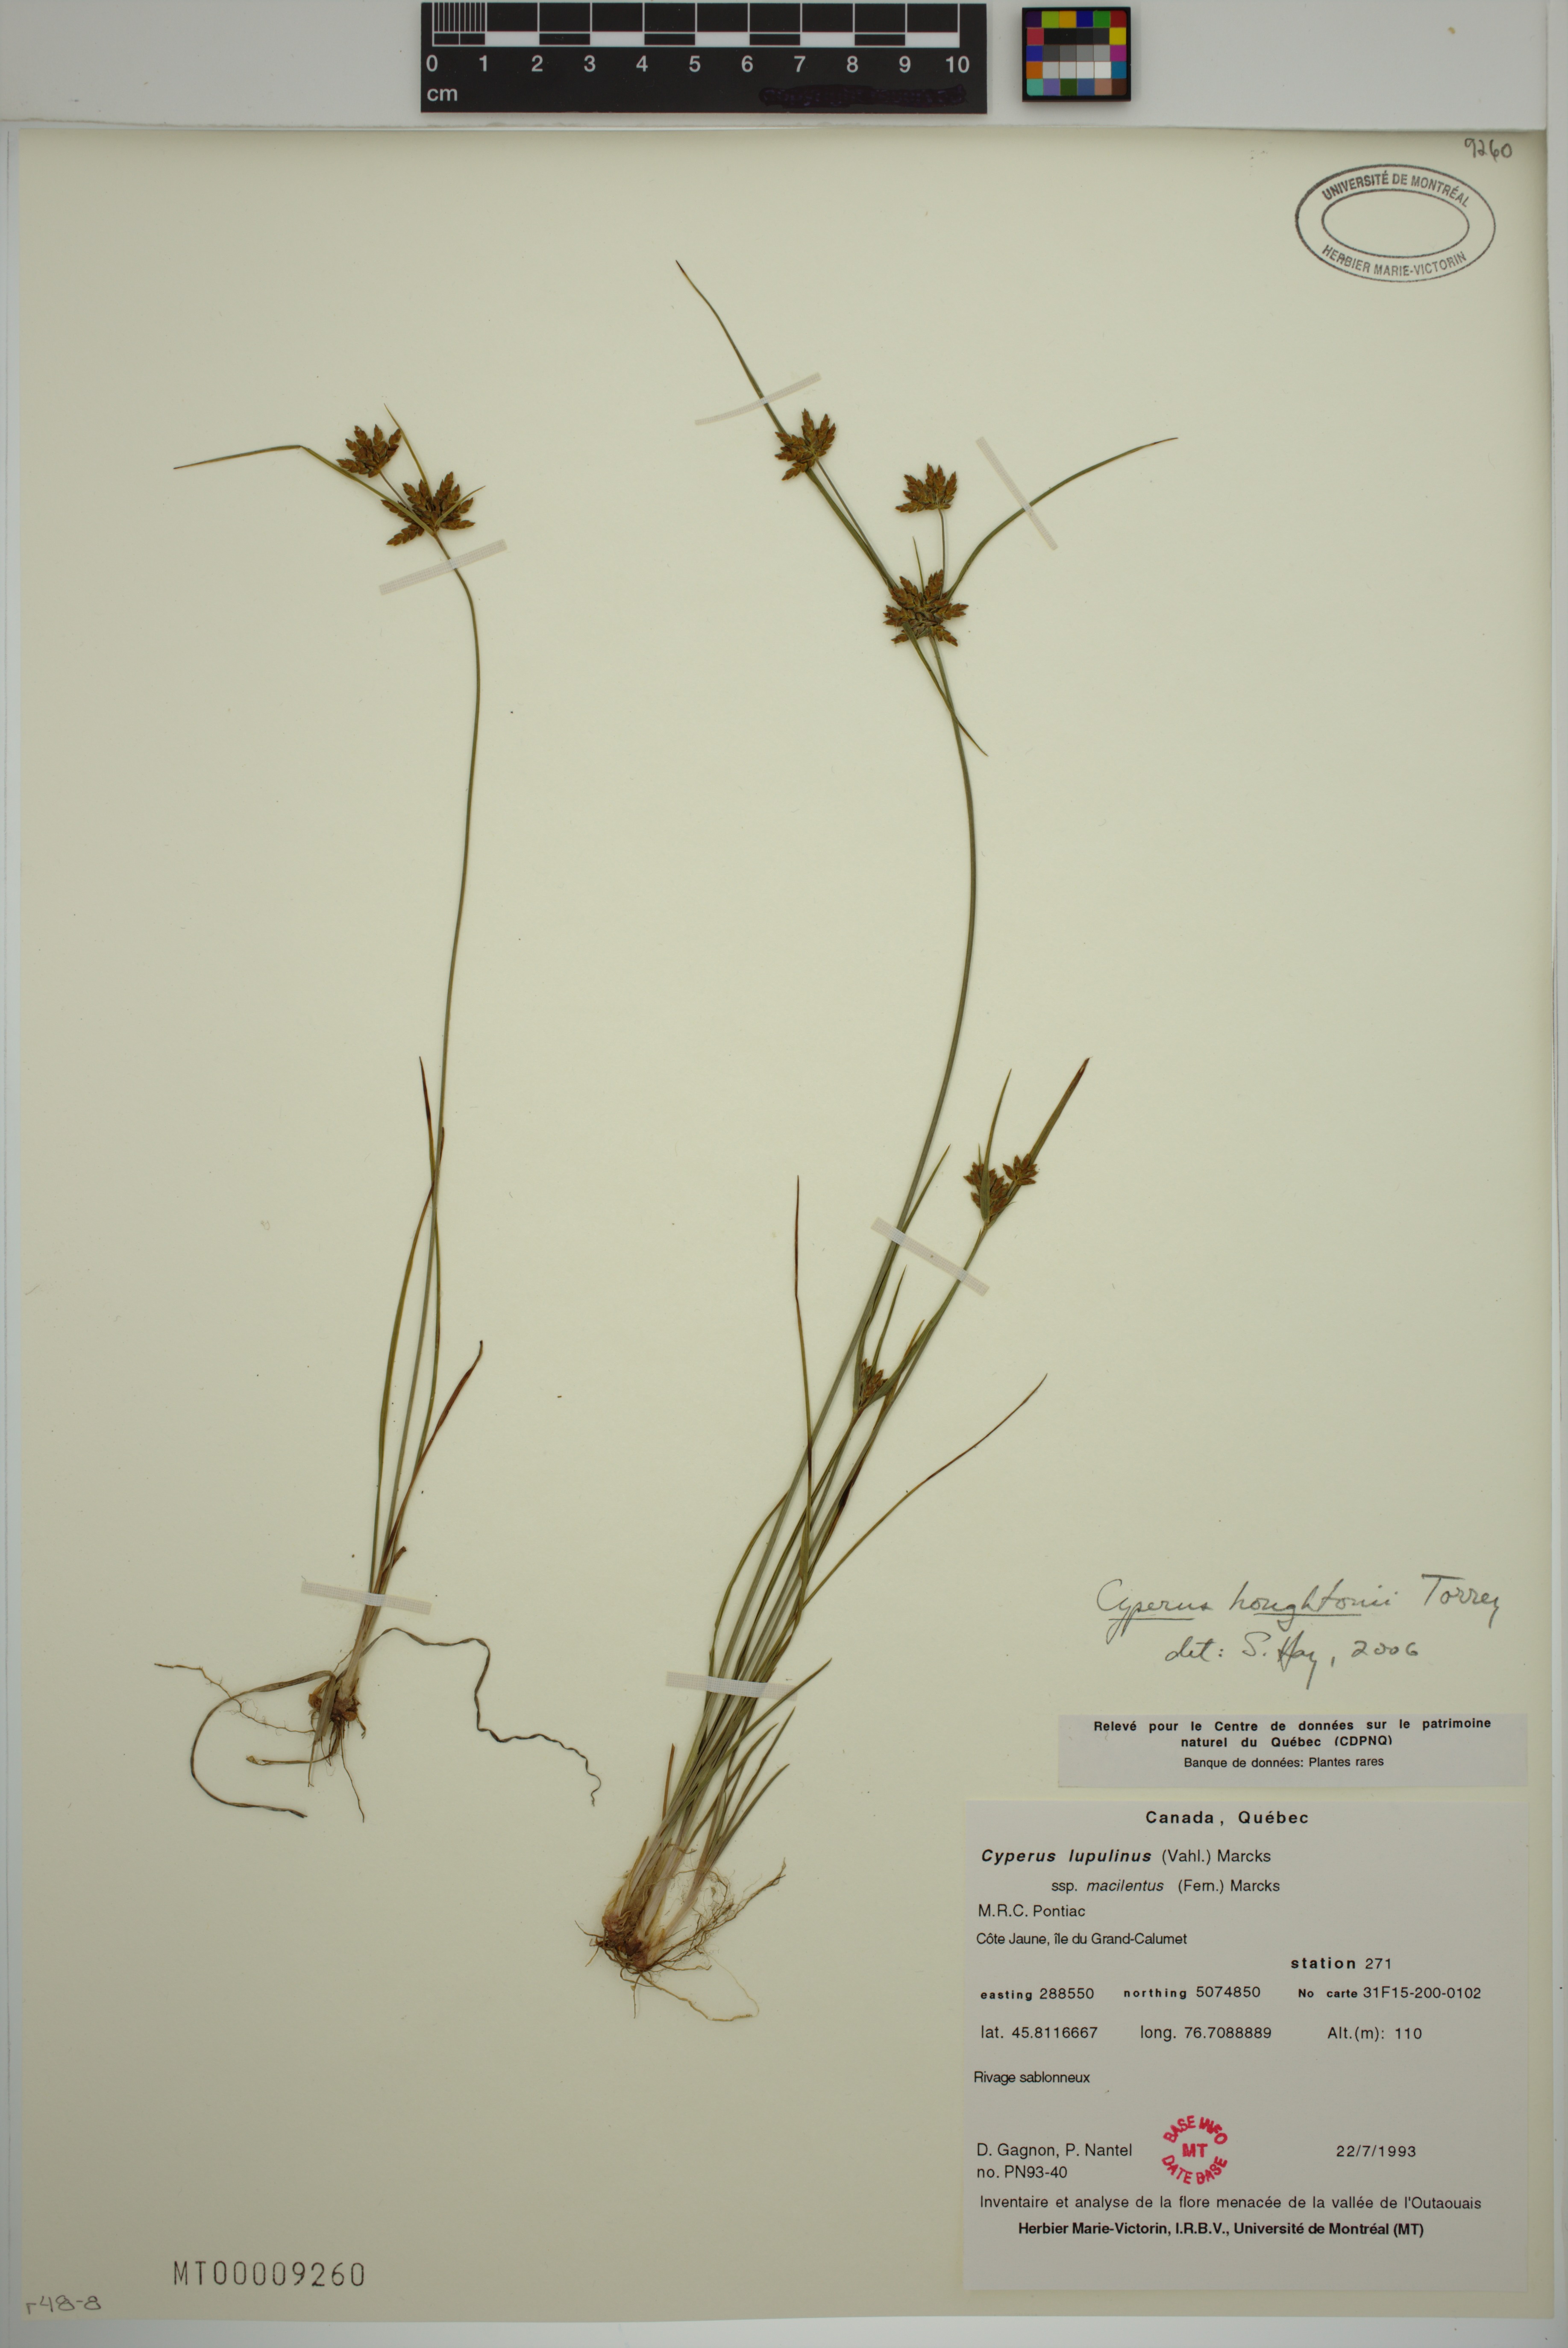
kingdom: Plantae
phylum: Tracheophyta
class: Liliopsida
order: Poales
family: Cyperaceae
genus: Cyperus
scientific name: Cyperus houghtonii
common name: Houghton's cyperus
